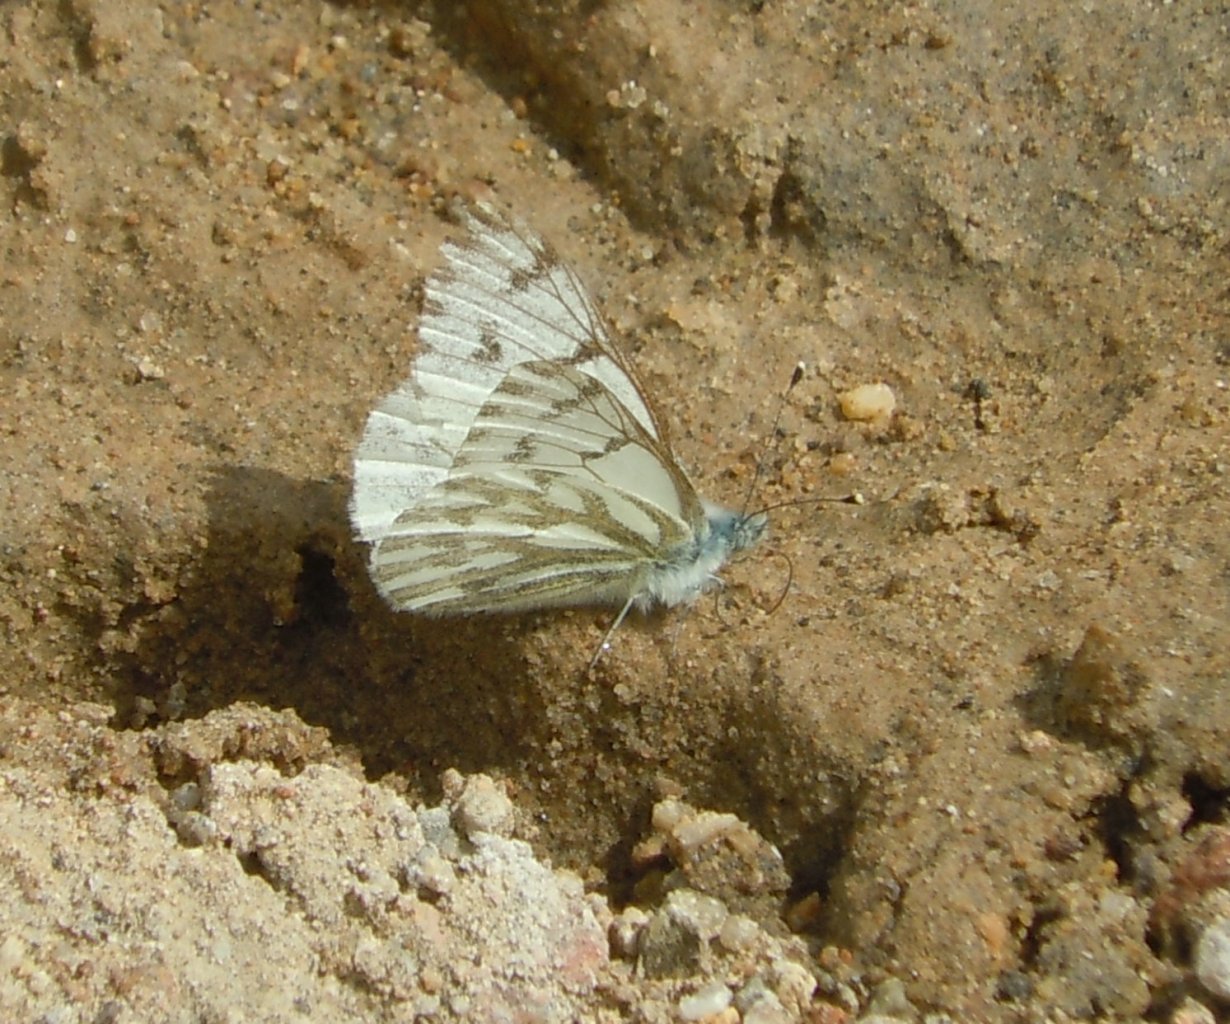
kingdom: Animalia
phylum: Arthropoda
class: Insecta
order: Lepidoptera
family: Pieridae
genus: Pontia
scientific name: Pontia sisymbrii
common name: Spring White
